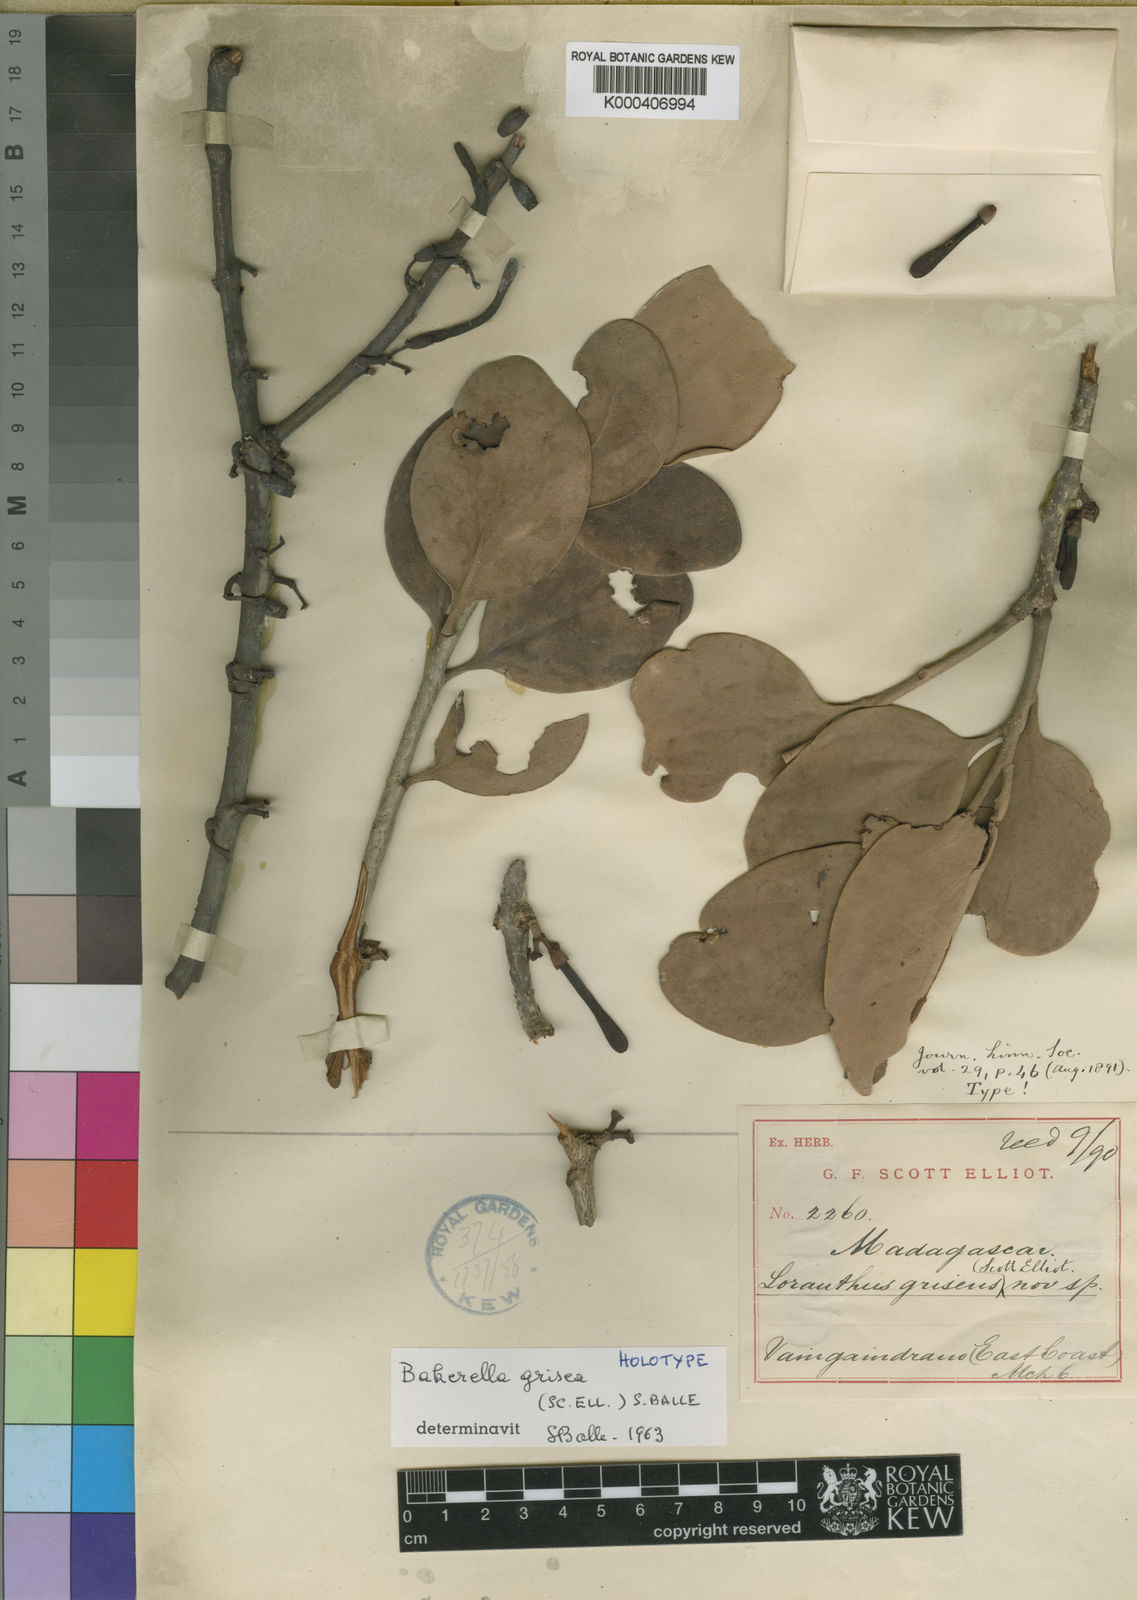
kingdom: Plantae
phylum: Tracheophyta
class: Magnoliopsida
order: Santalales
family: Loranthaceae
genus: Bakerella
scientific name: Bakerella grisea
